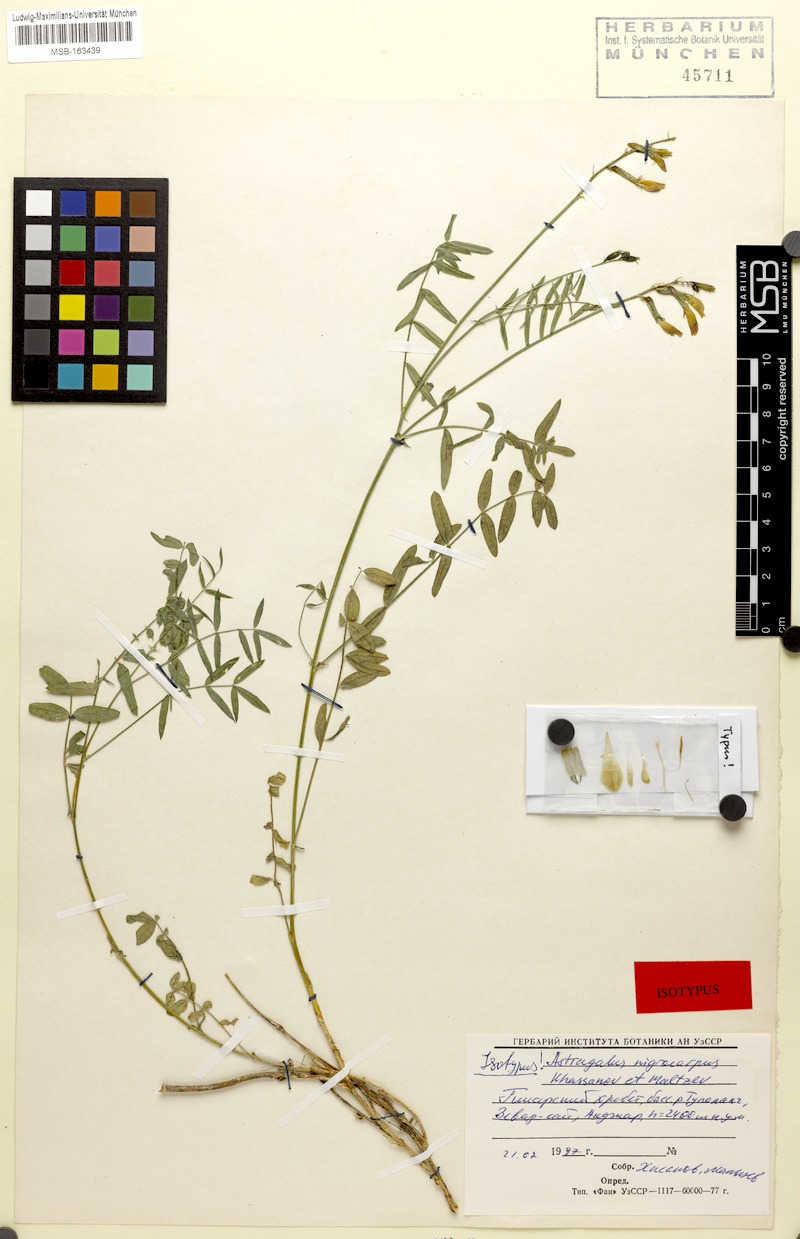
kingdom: Plantae
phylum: Tracheophyta
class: Magnoliopsida
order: Fabales
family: Fabaceae
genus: Astragalus
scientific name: Astragalus nigrocarpus
